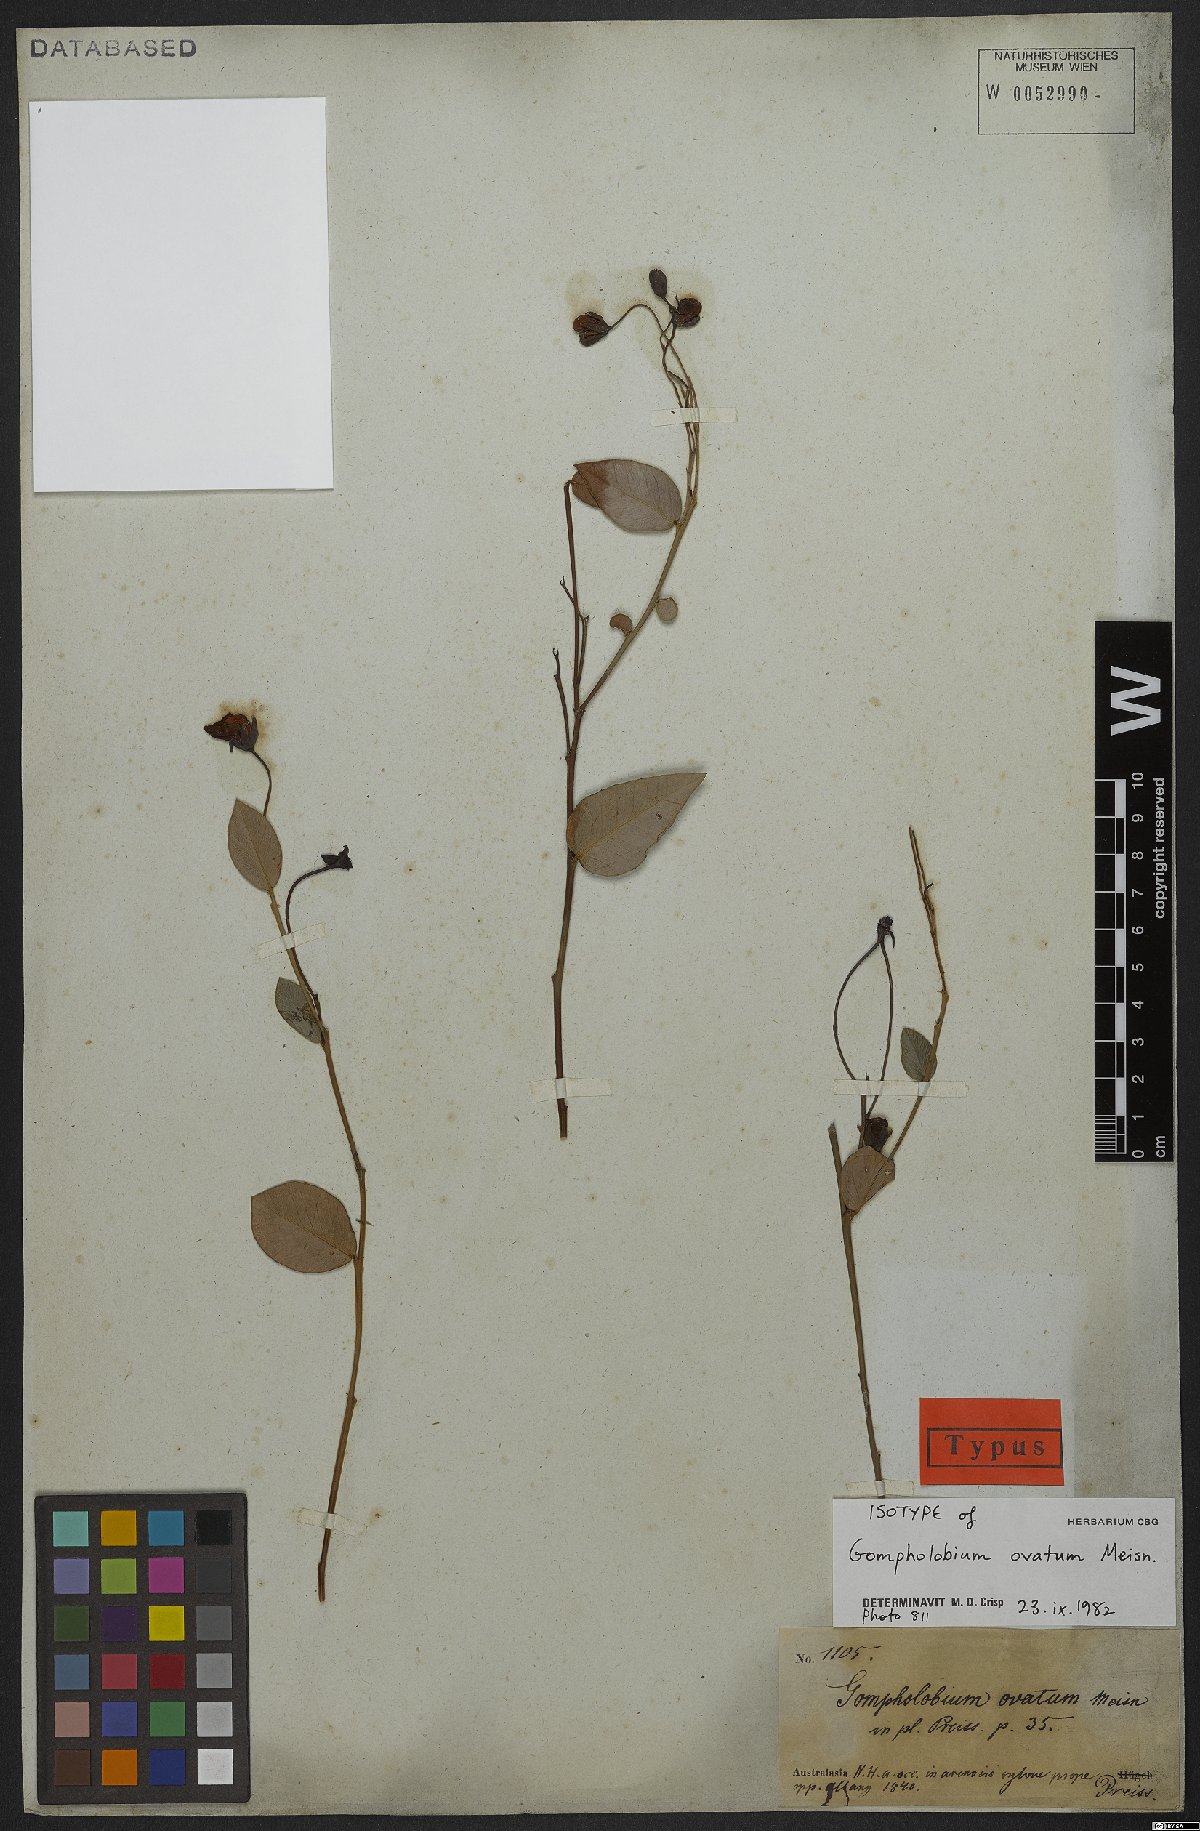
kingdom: Plantae
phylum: Tracheophyta
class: Magnoliopsida
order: Fabales
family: Fabaceae
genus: Gompholobium
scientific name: Gompholobium ovatum
